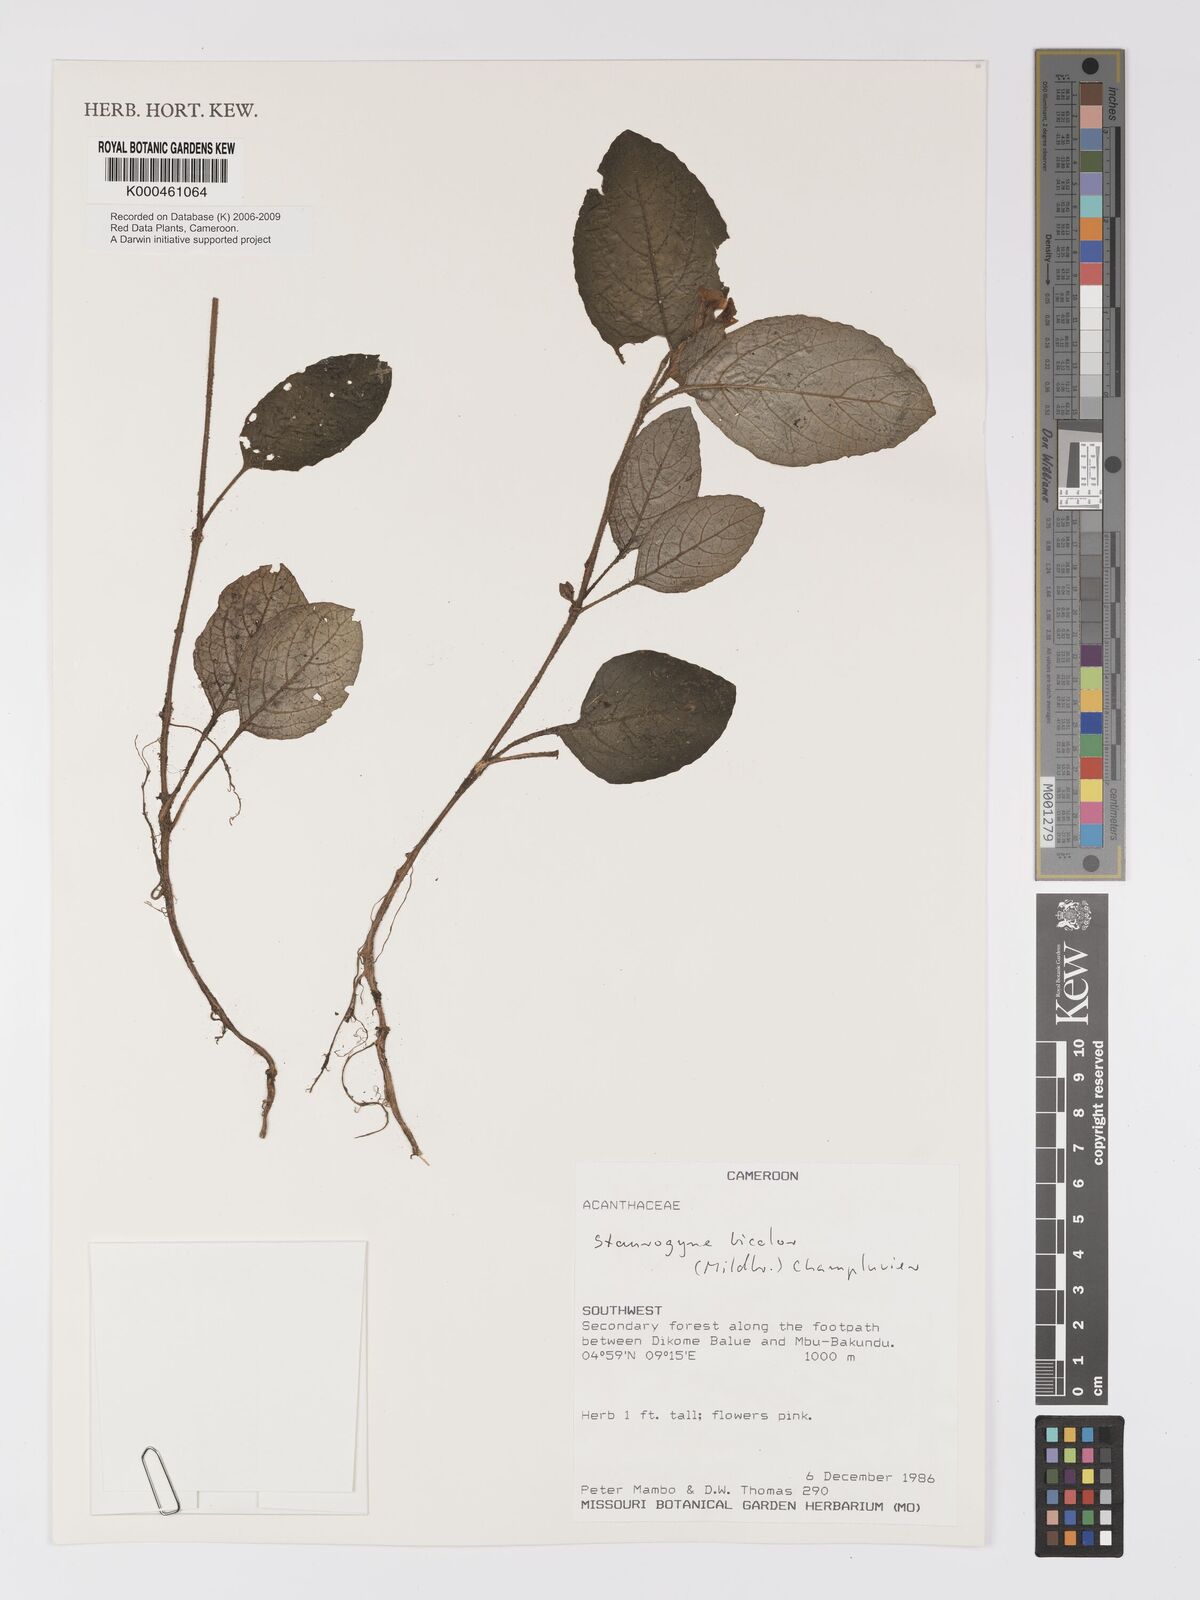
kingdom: Plantae
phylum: Tracheophyta
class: Magnoliopsida
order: Lamiales
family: Acanthaceae
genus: Staurogyne
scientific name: Staurogyne bicolor
